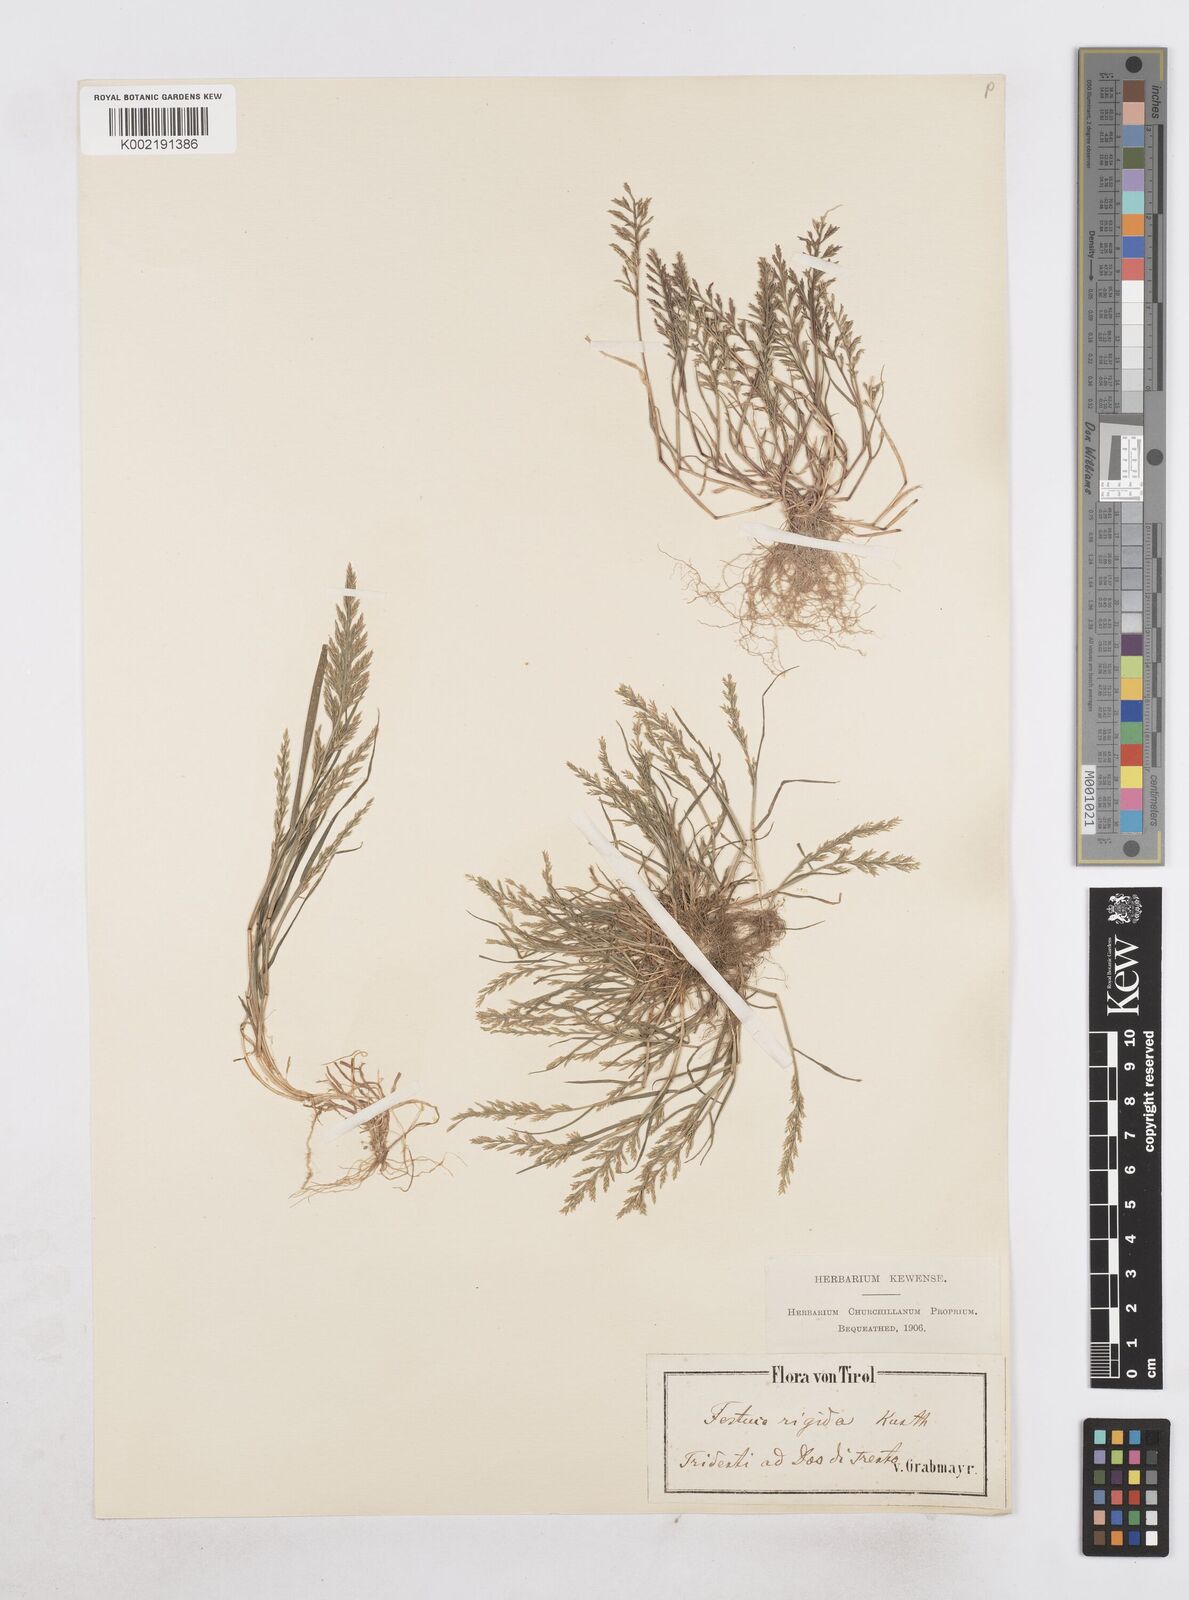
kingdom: Plantae
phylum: Tracheophyta
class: Liliopsida
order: Poales
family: Poaceae
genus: Catapodium
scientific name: Catapodium rigidum
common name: Fern-grass
